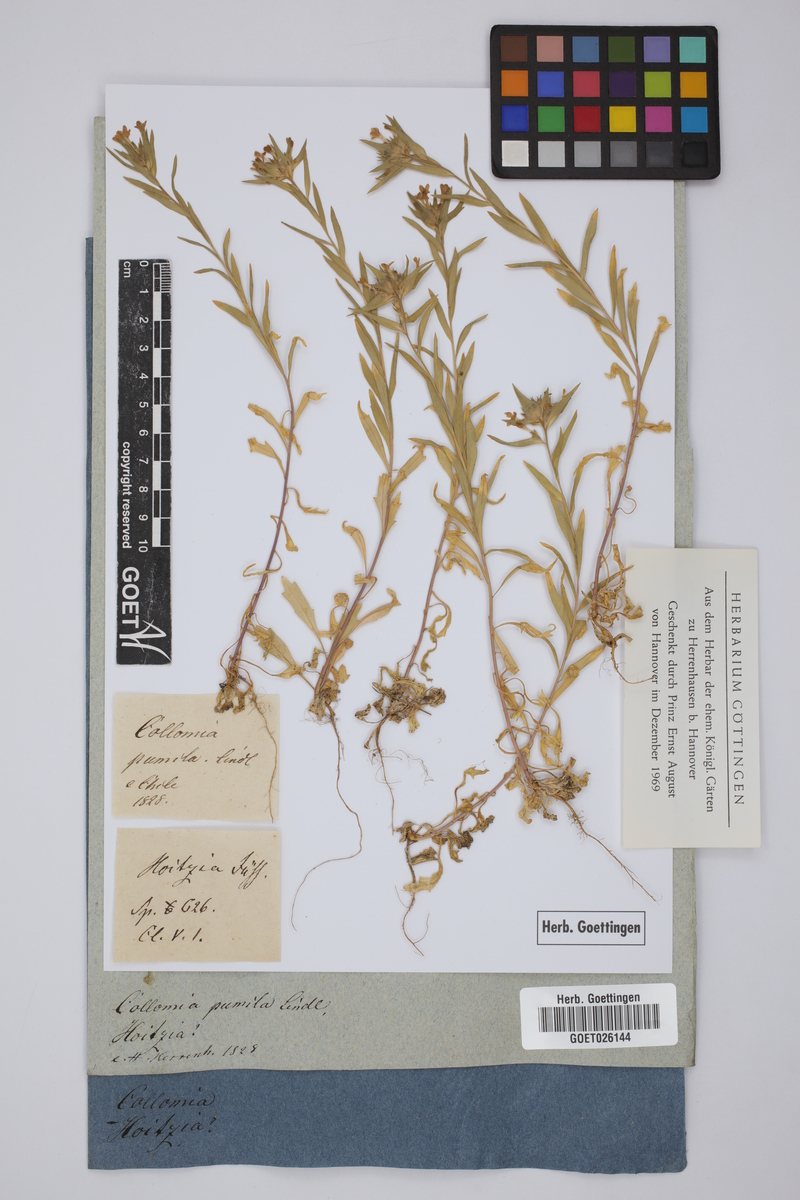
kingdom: Plantae
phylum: Tracheophyta
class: Magnoliopsida
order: Ericales
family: Polemoniaceae
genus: Collomia
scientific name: Collomia
